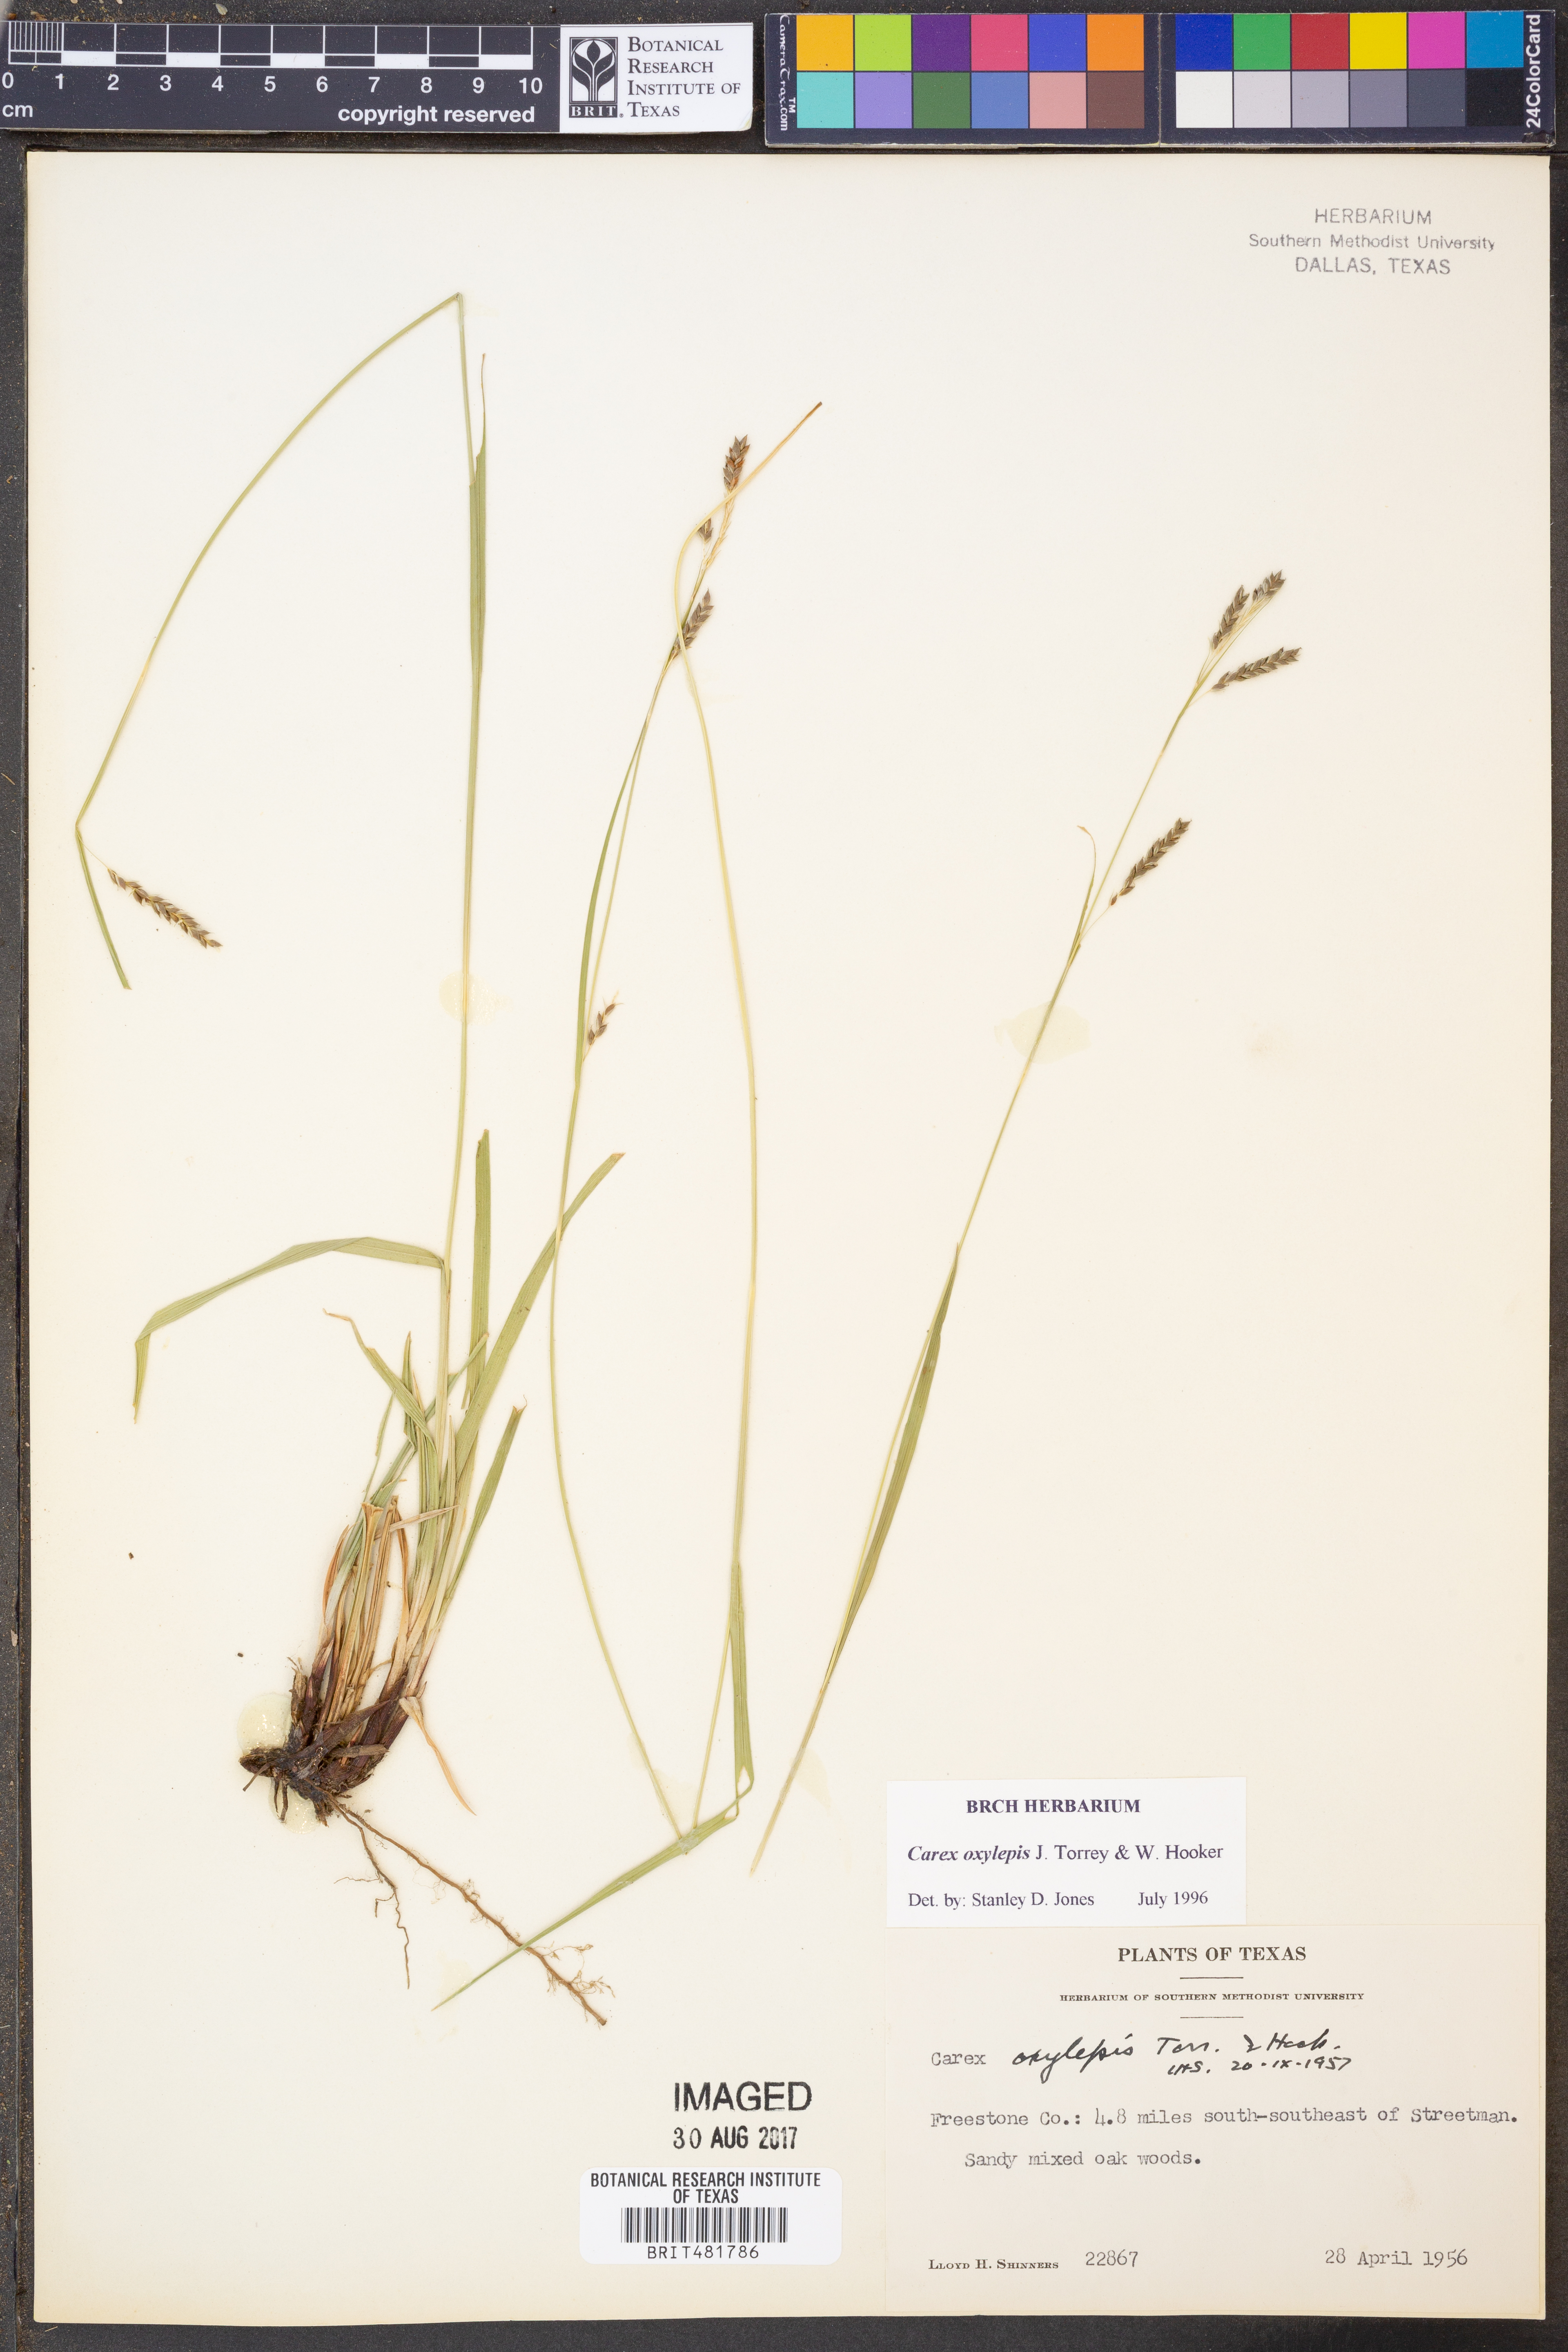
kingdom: Plantae
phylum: Tracheophyta
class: Liliopsida
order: Poales
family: Cyperaceae
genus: Carex
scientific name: Carex oxylepis
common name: Sharpscale sedge
